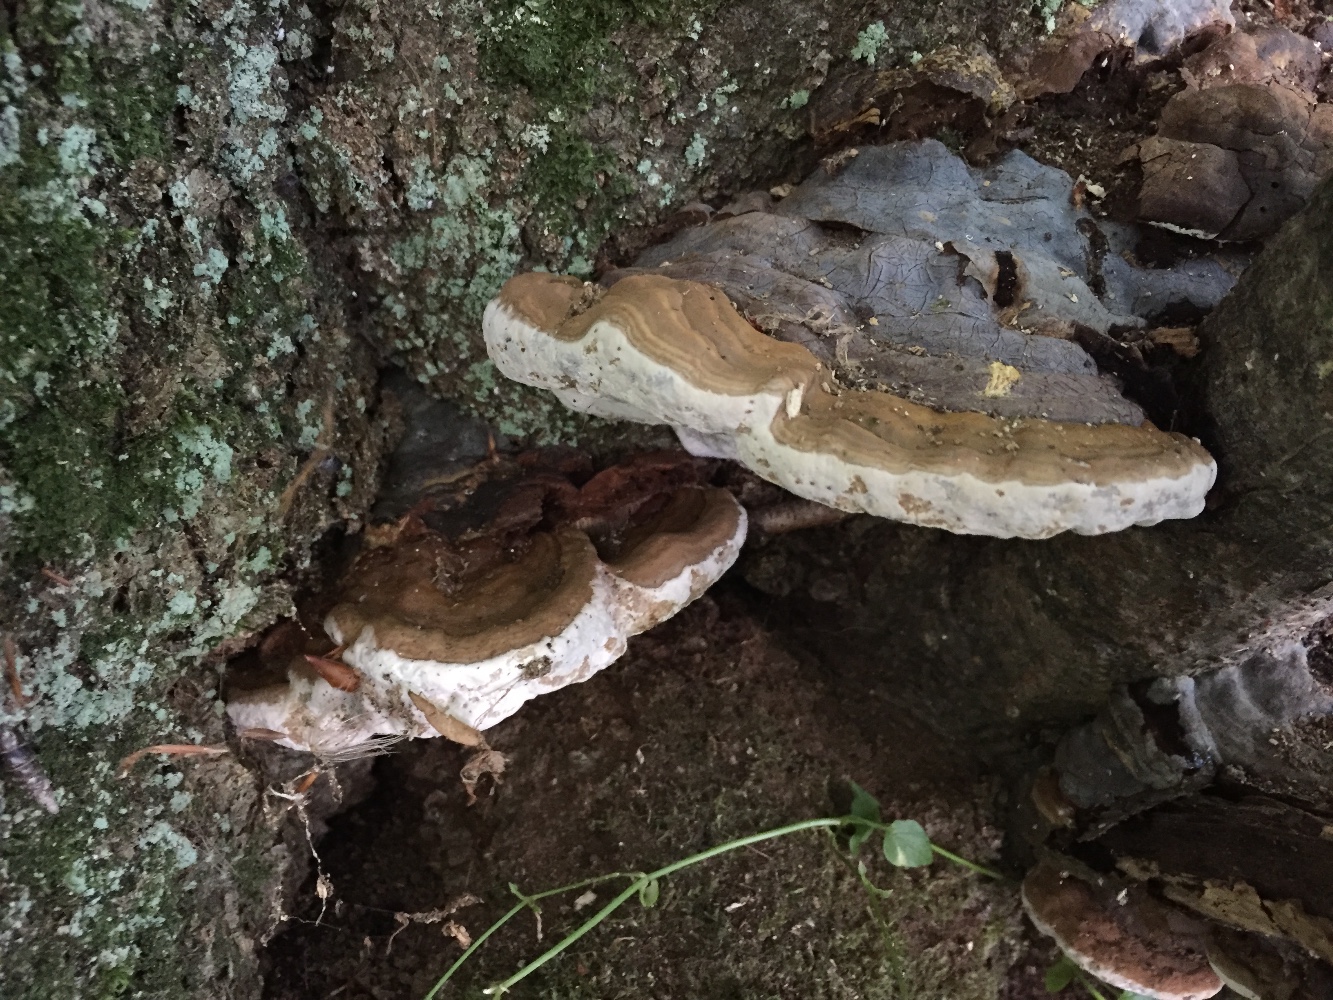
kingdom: Fungi
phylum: Basidiomycota
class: Agaricomycetes
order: Polyporales
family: Polyporaceae
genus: Ganoderma
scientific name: Ganoderma pfeifferi
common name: kobberrød lakporesvamp
